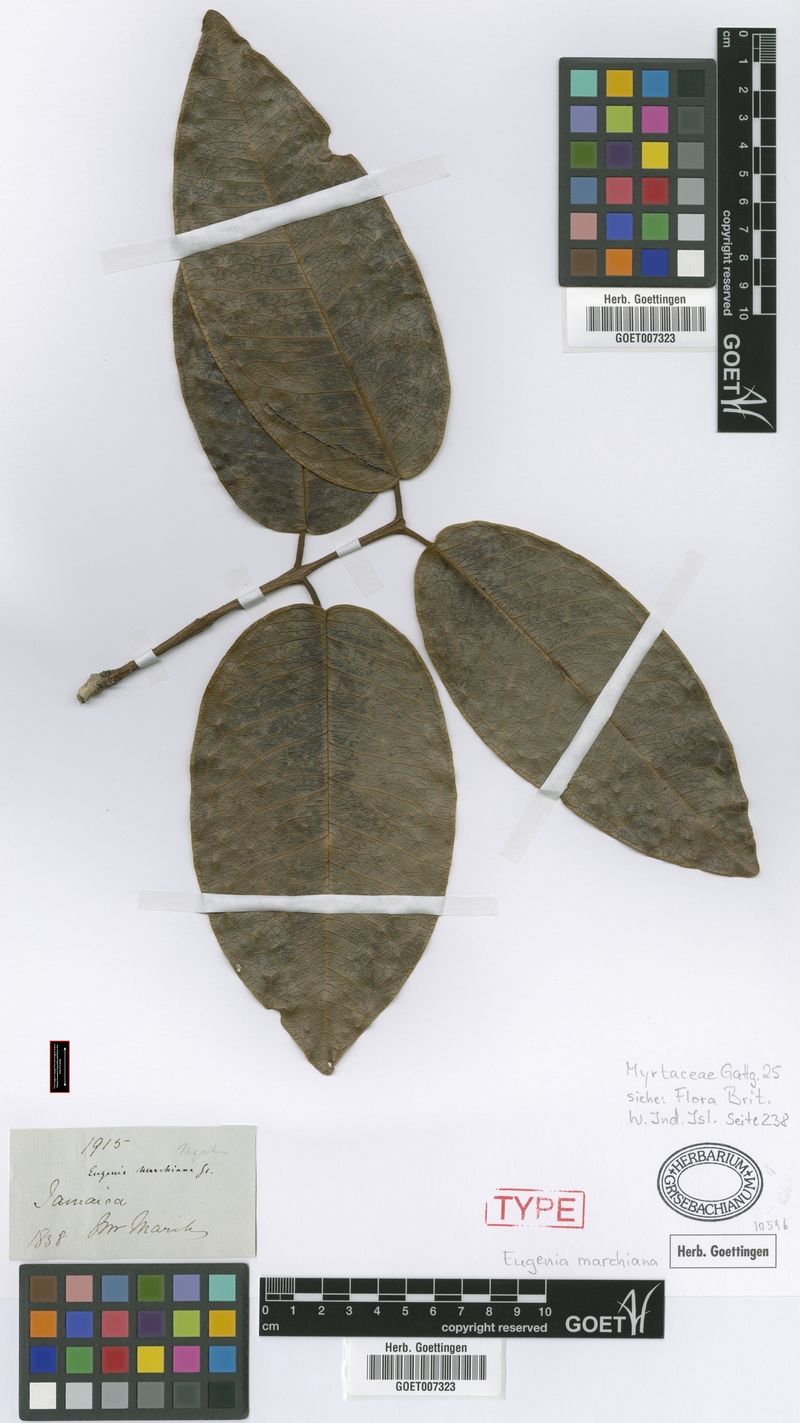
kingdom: Plantae
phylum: Tracheophyta
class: Magnoliopsida
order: Myrtales
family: Myrtaceae
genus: Eugenia
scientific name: Eugenia marchiana
